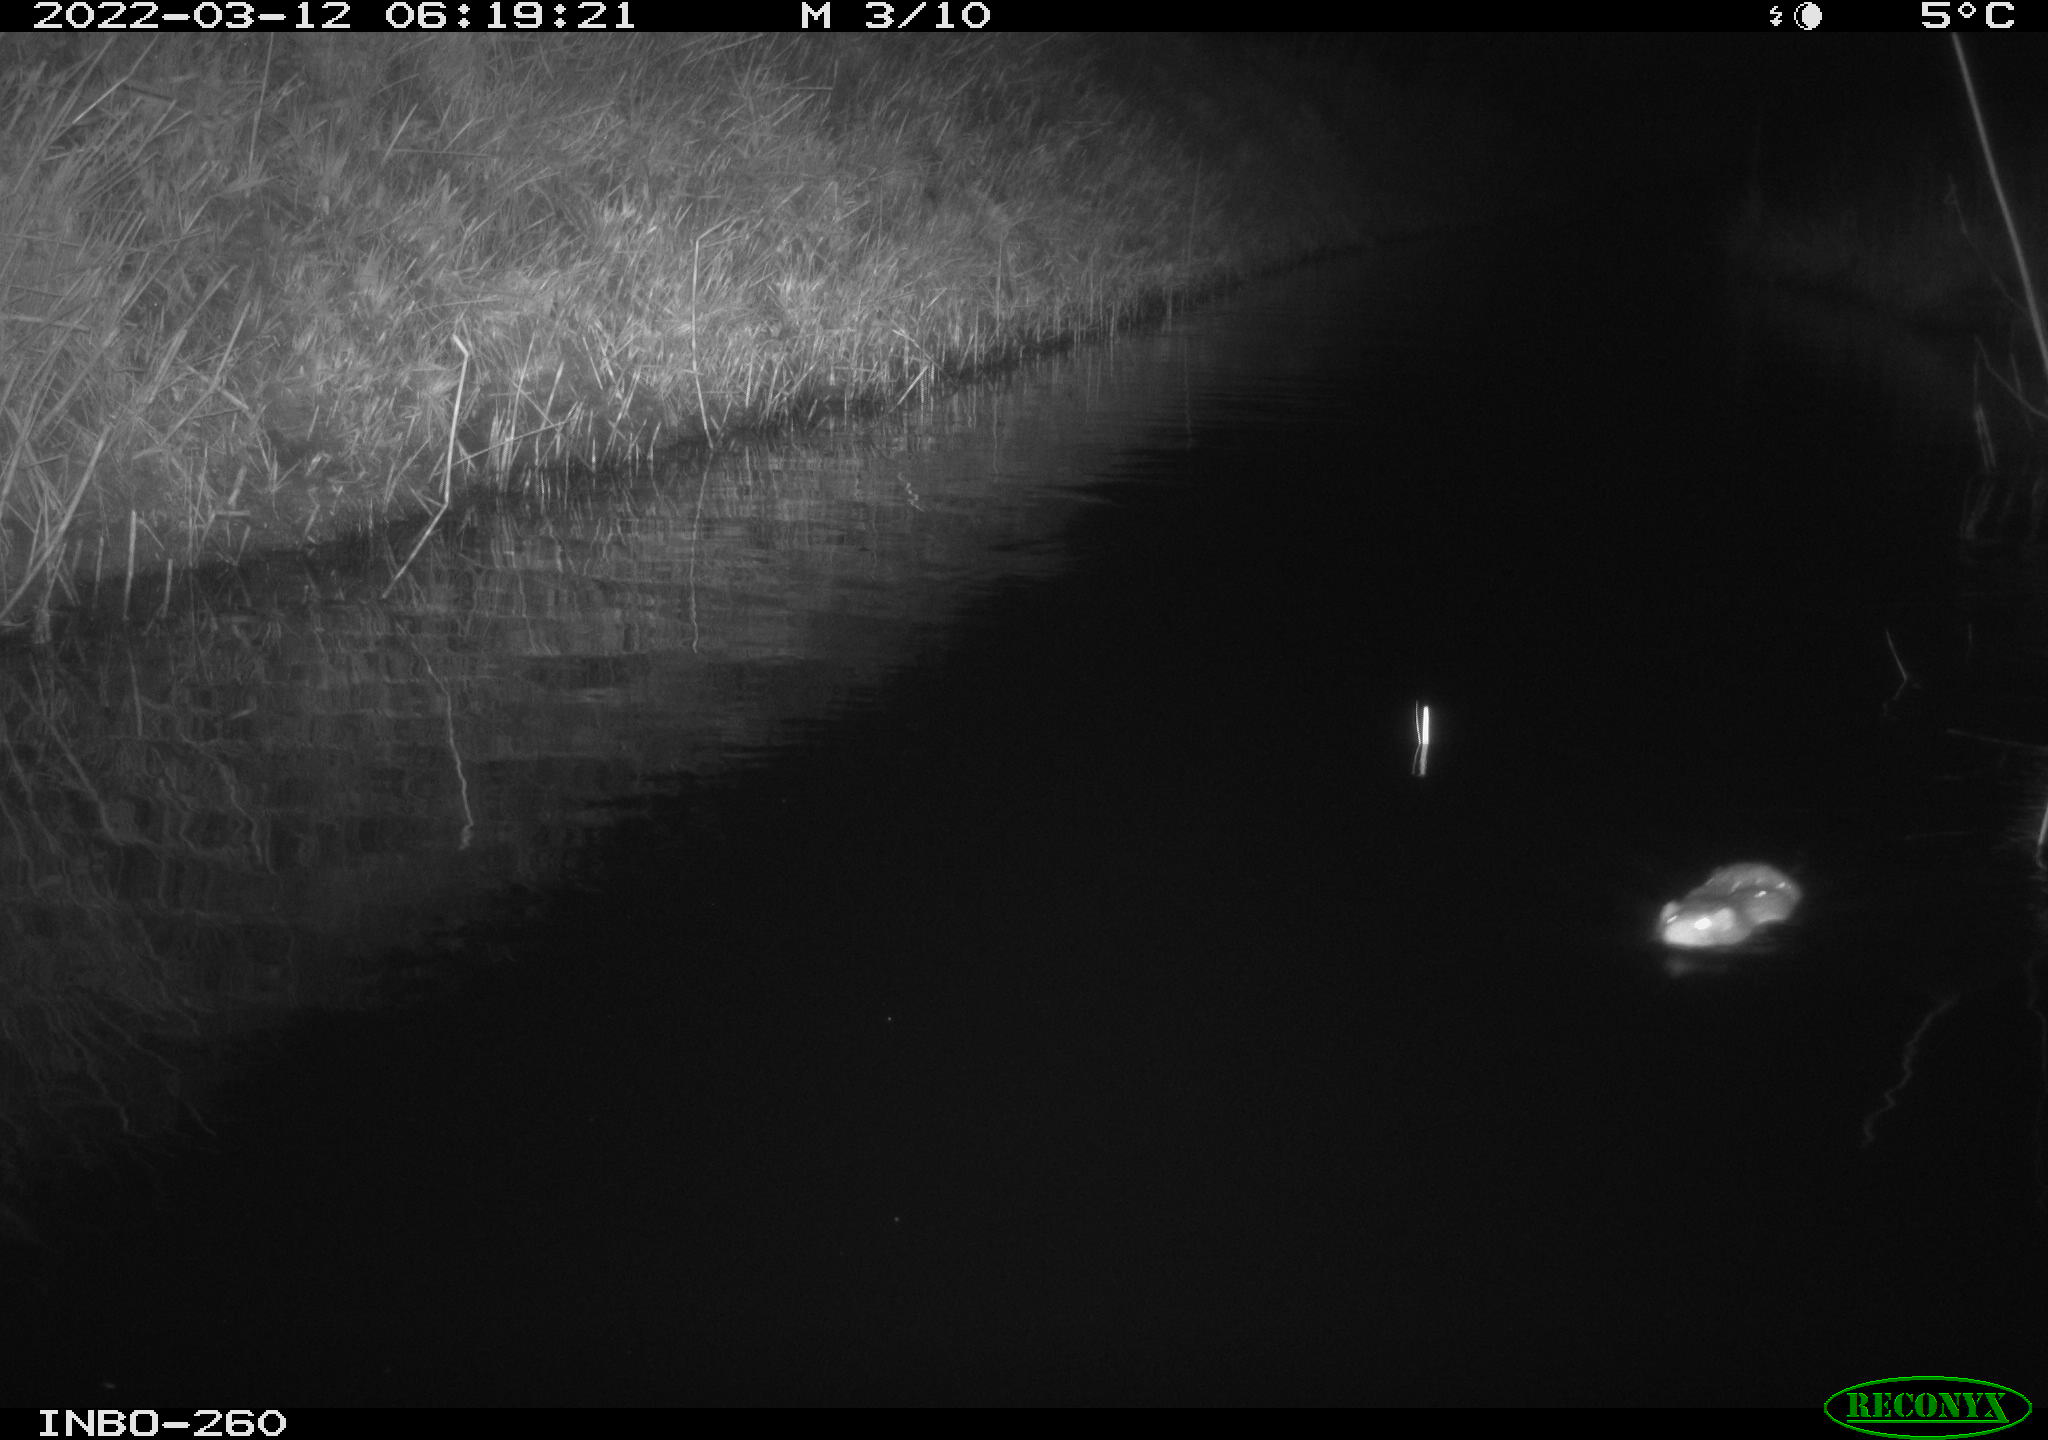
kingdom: Animalia
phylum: Chordata
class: Mammalia
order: Rodentia
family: Cricetidae
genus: Ondatra
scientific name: Ondatra zibethicus
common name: Muskrat
